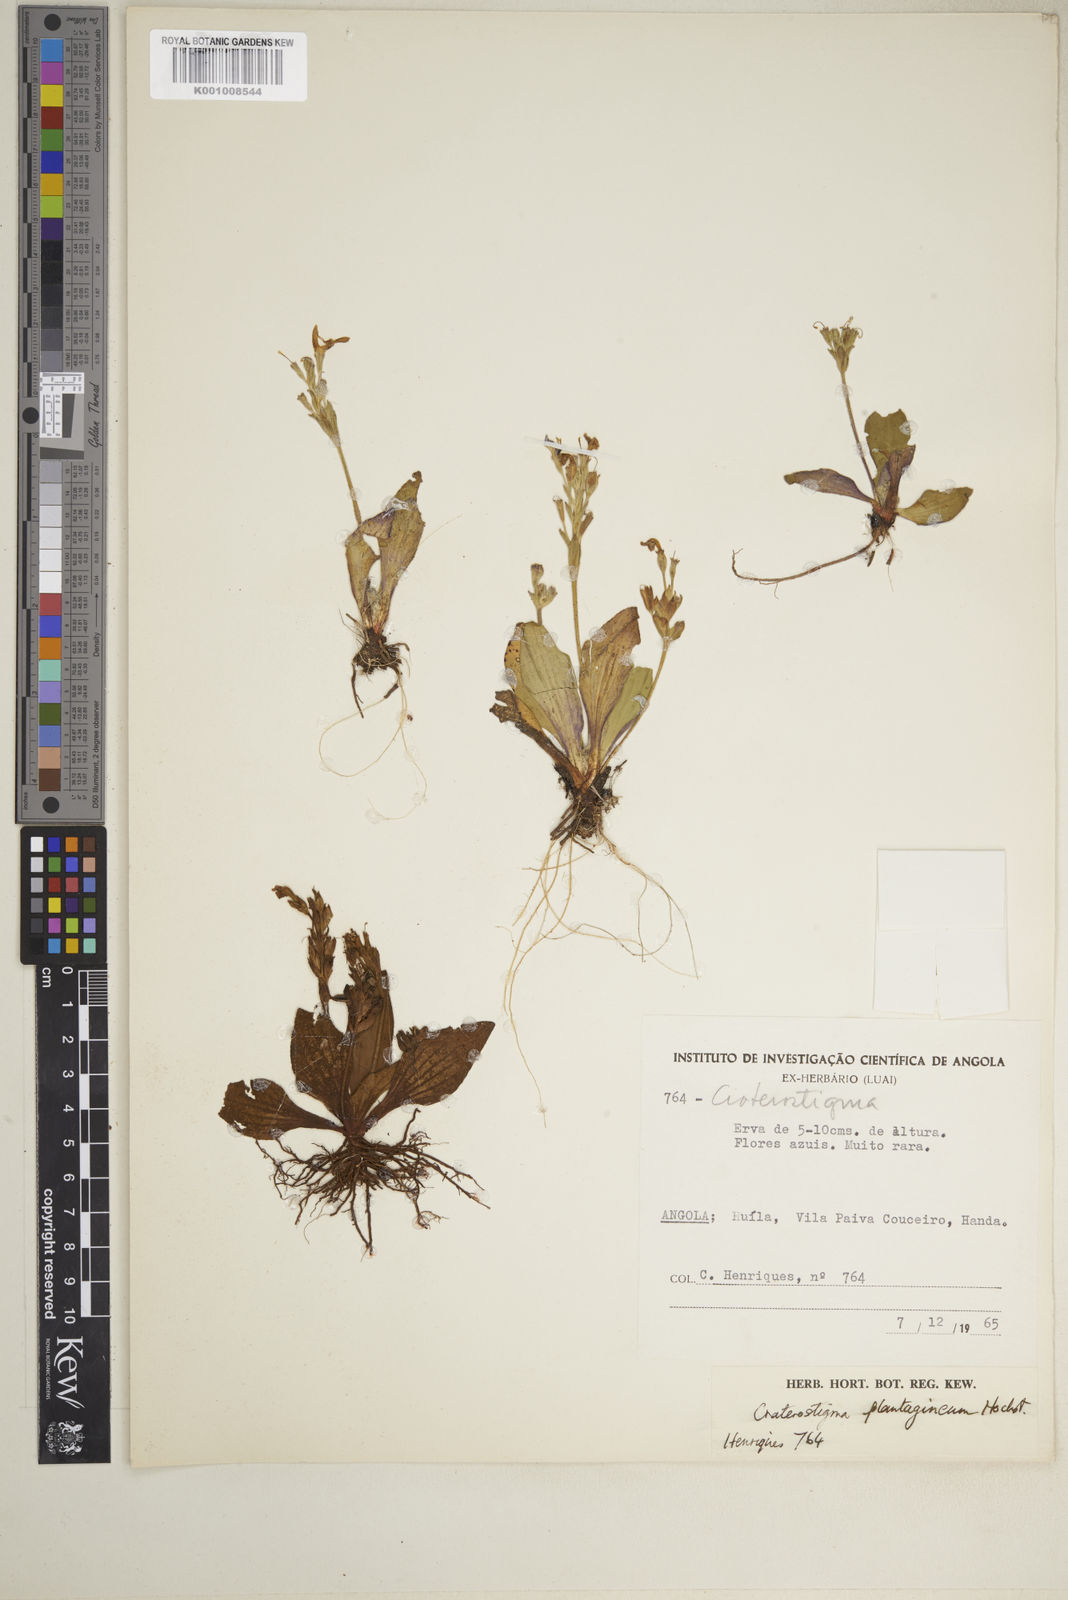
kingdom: Plantae
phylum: Tracheophyta
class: Magnoliopsida
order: Lamiales
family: Linderniaceae
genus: Craterostigma
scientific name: Craterostigma plantagineum
